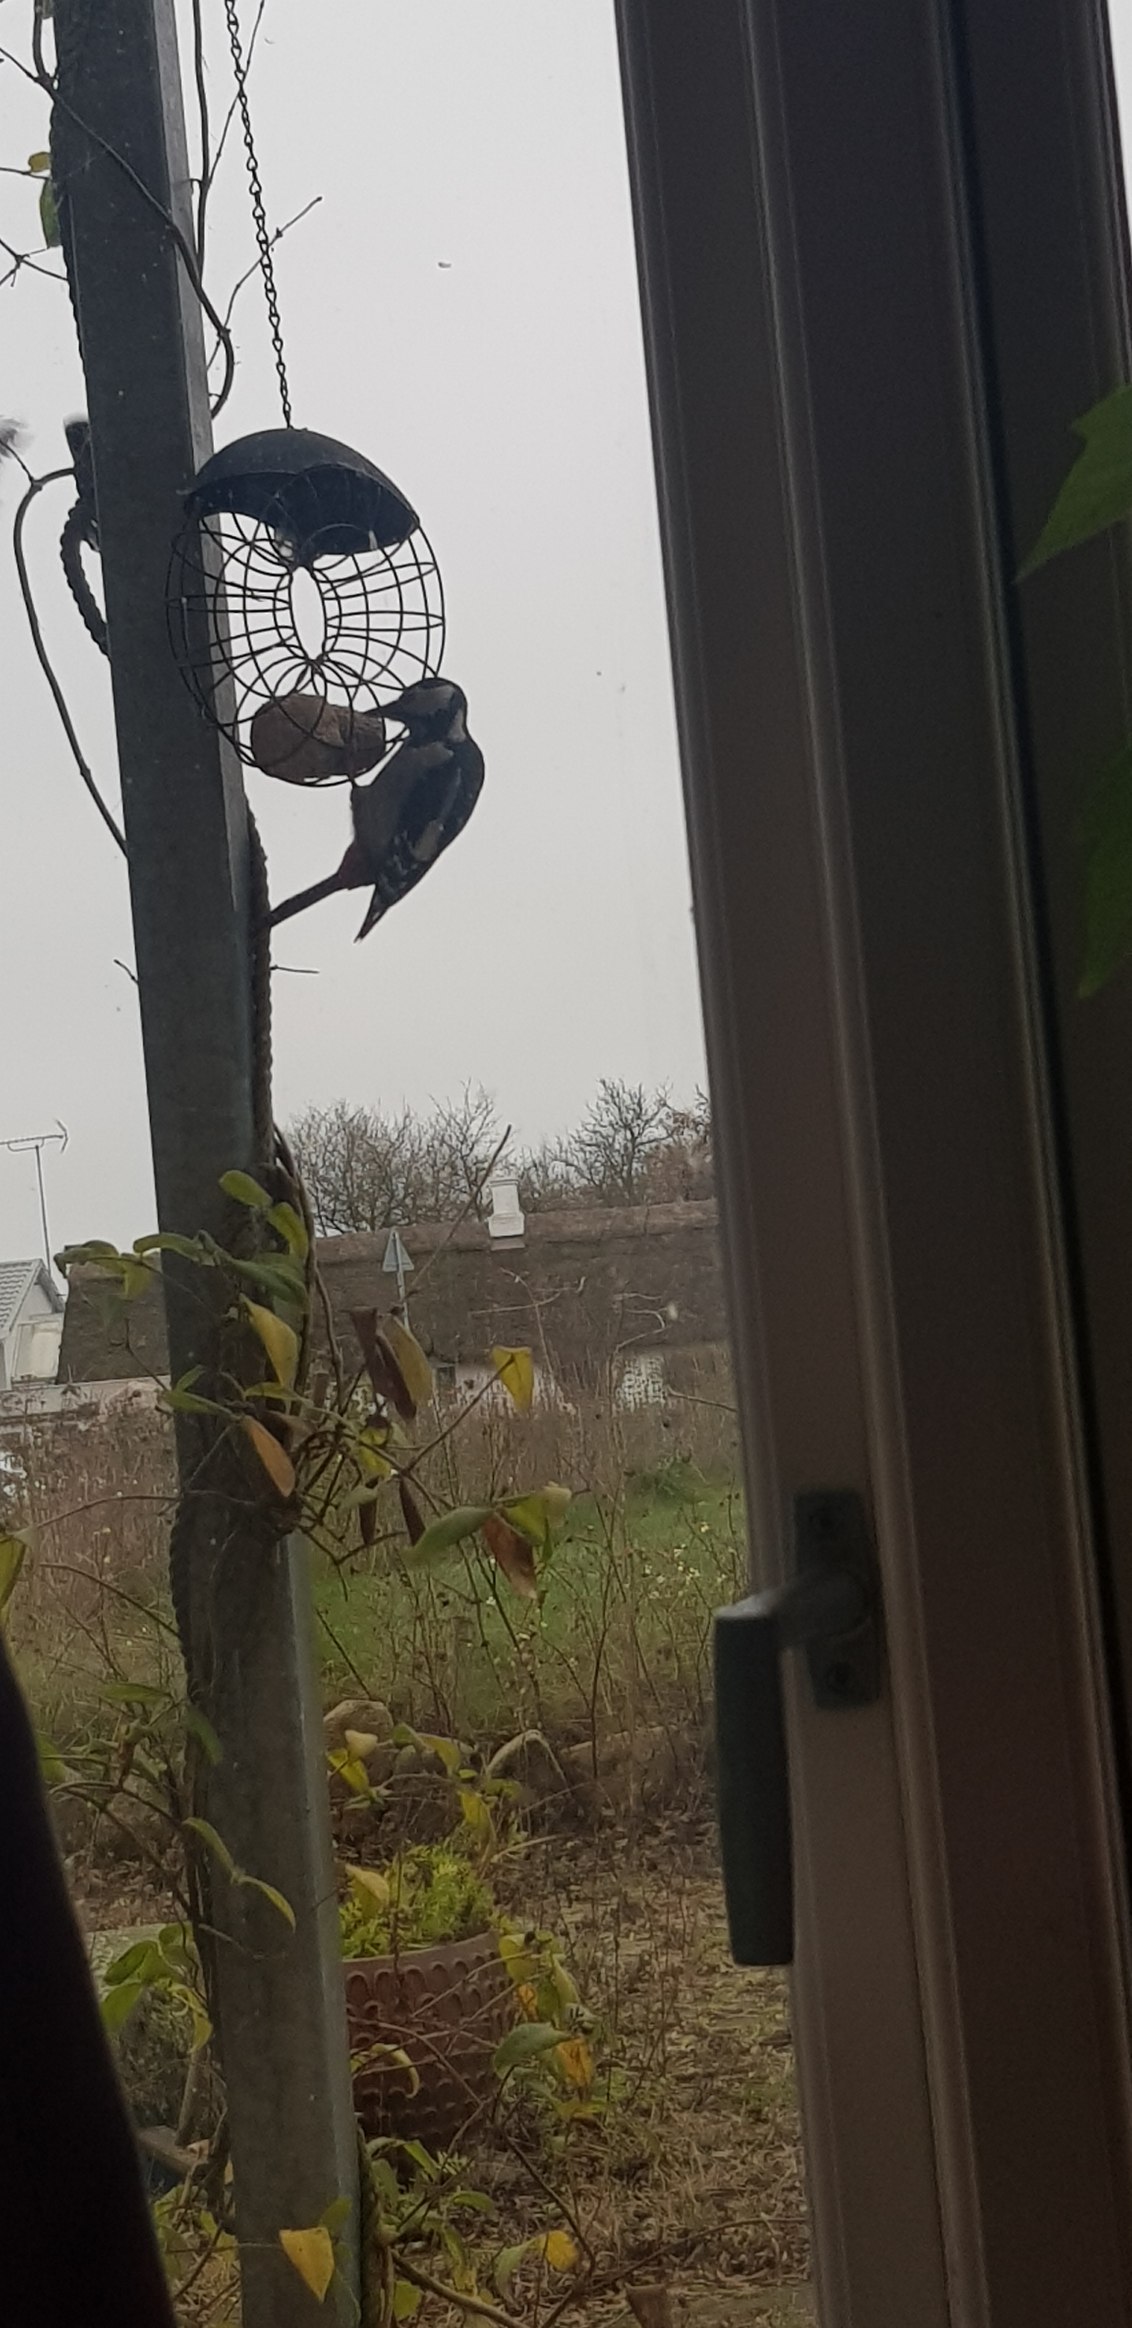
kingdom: Animalia
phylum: Chordata
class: Aves
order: Piciformes
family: Picidae
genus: Dendrocopos
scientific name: Dendrocopos major
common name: Stor flagspætte
